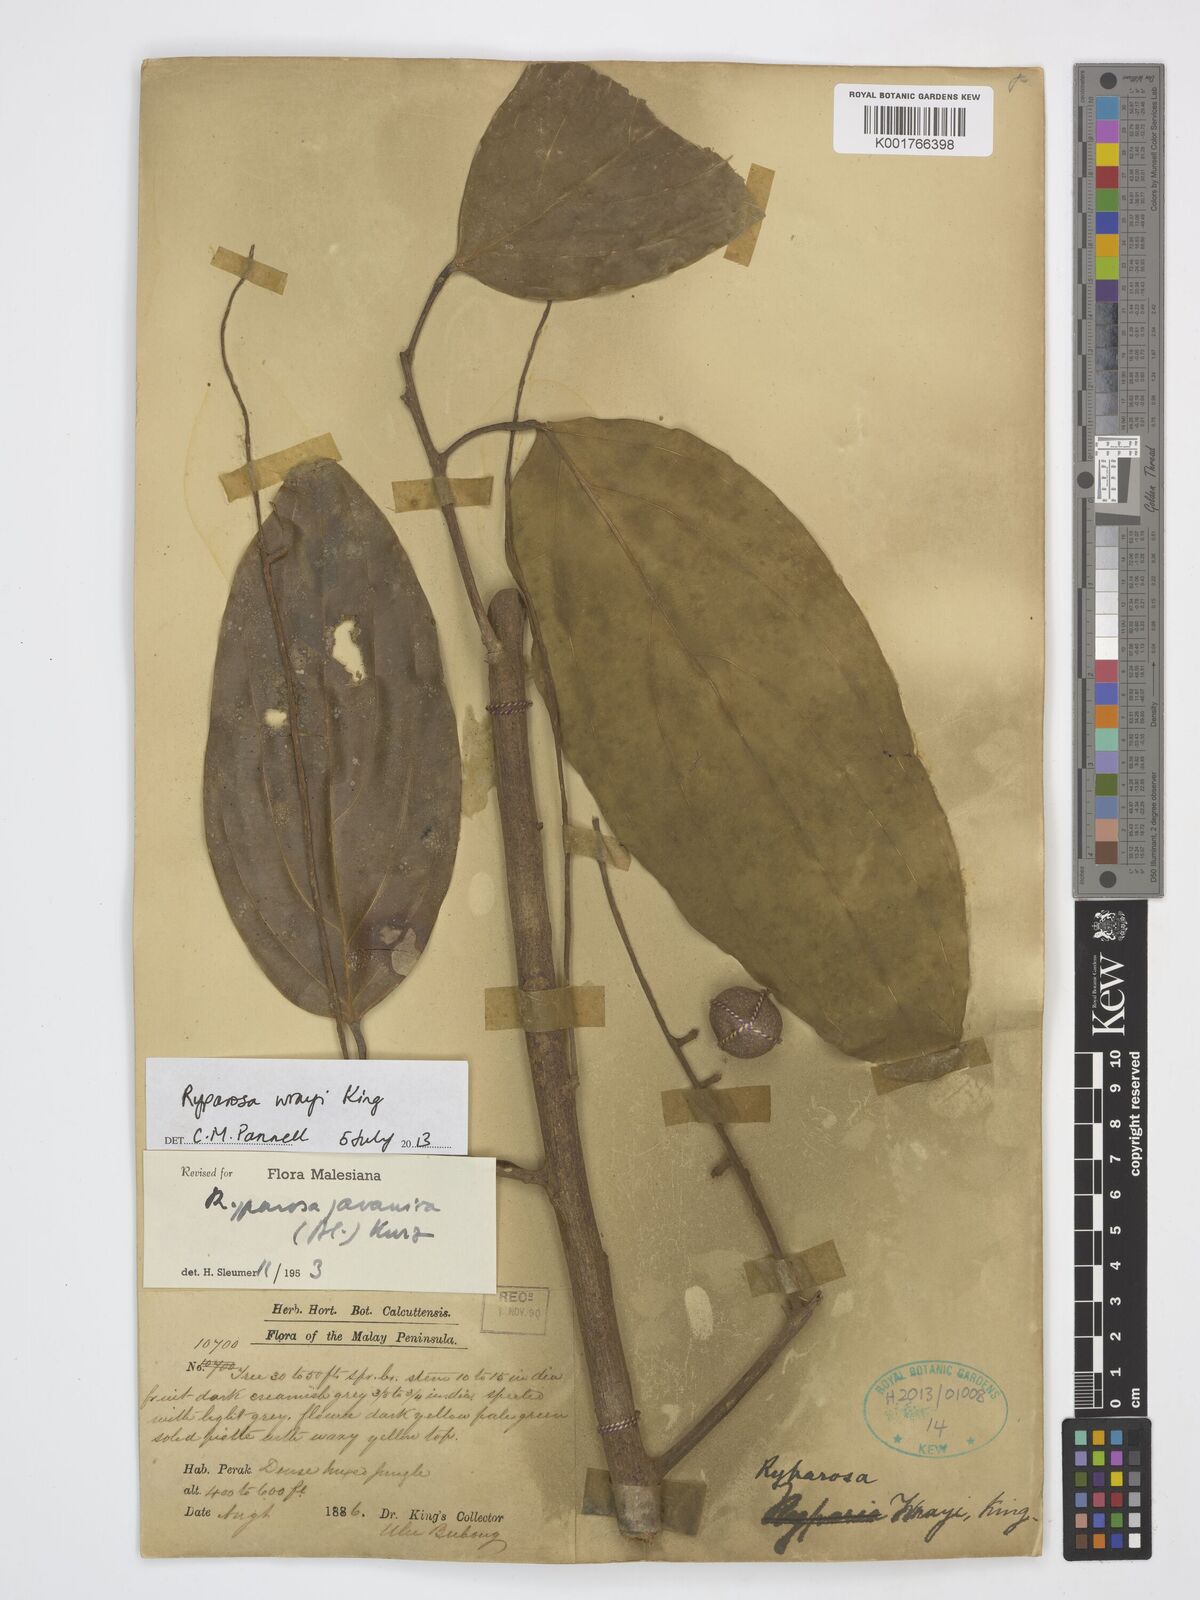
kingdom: Plantae
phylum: Tracheophyta
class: Magnoliopsida
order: Malpighiales
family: Achariaceae
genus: Ryparosa
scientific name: Ryparosa wrayi
